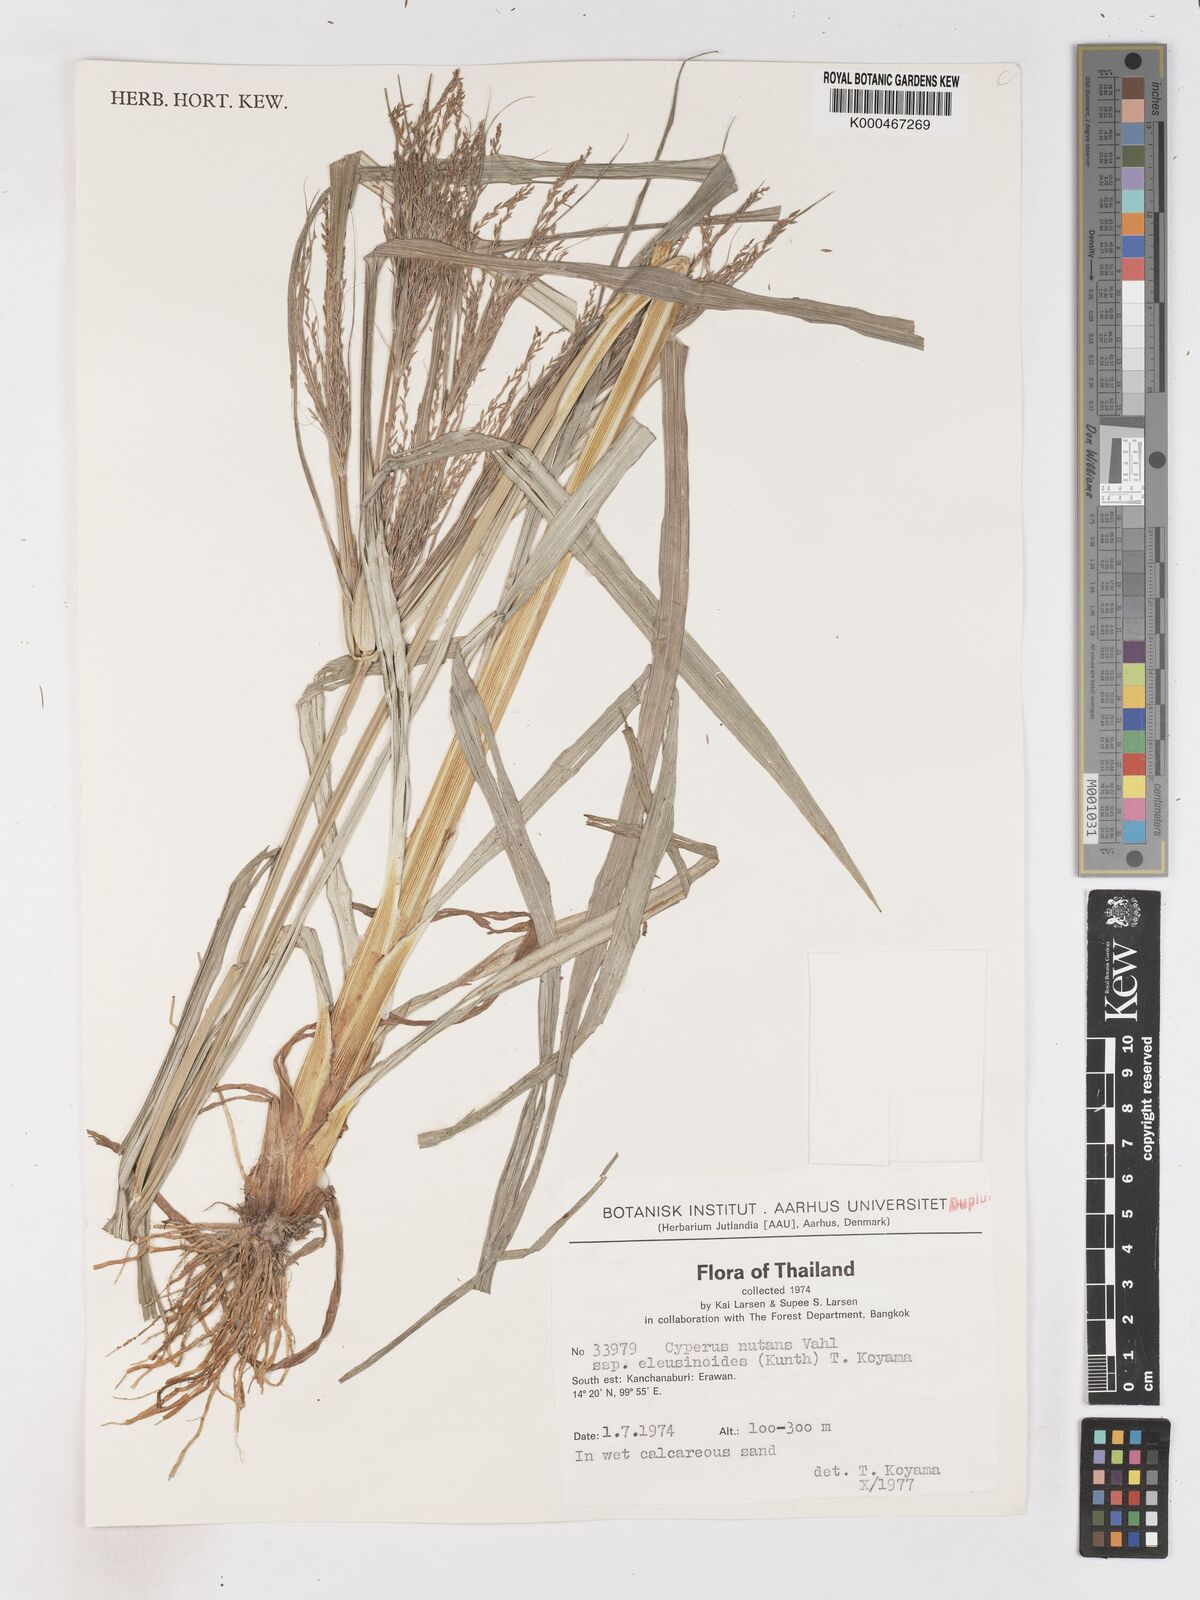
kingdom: Plantae
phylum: Tracheophyta
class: Liliopsida
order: Poales
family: Cyperaceae
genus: Cyperus
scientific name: Cyperus nutans
